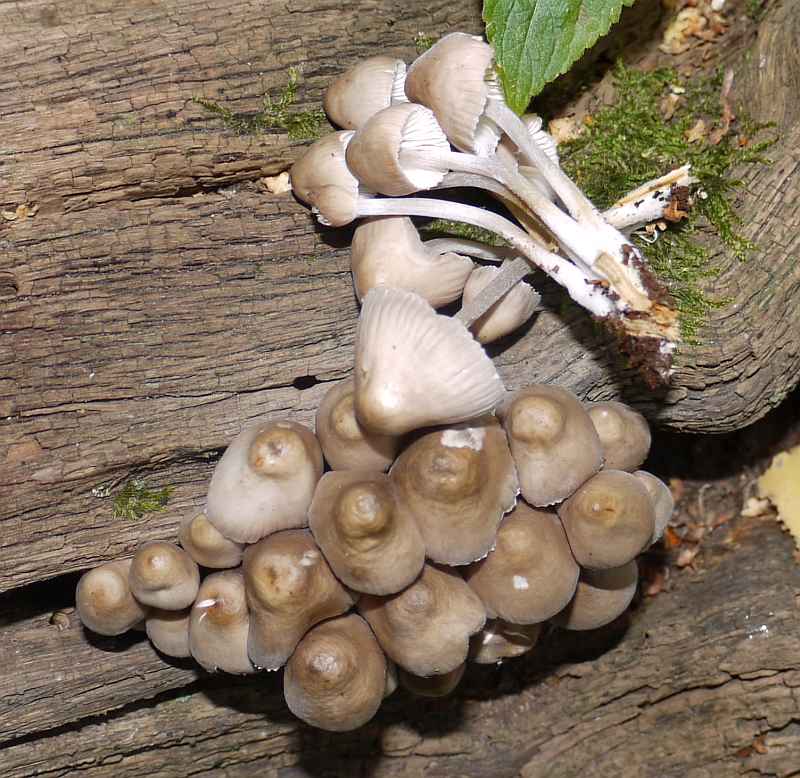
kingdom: Fungi
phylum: Basidiomycota
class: Agaricomycetes
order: Agaricales
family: Mycenaceae
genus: Mycena
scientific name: Mycena inclinata
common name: nikkende huesvamp
